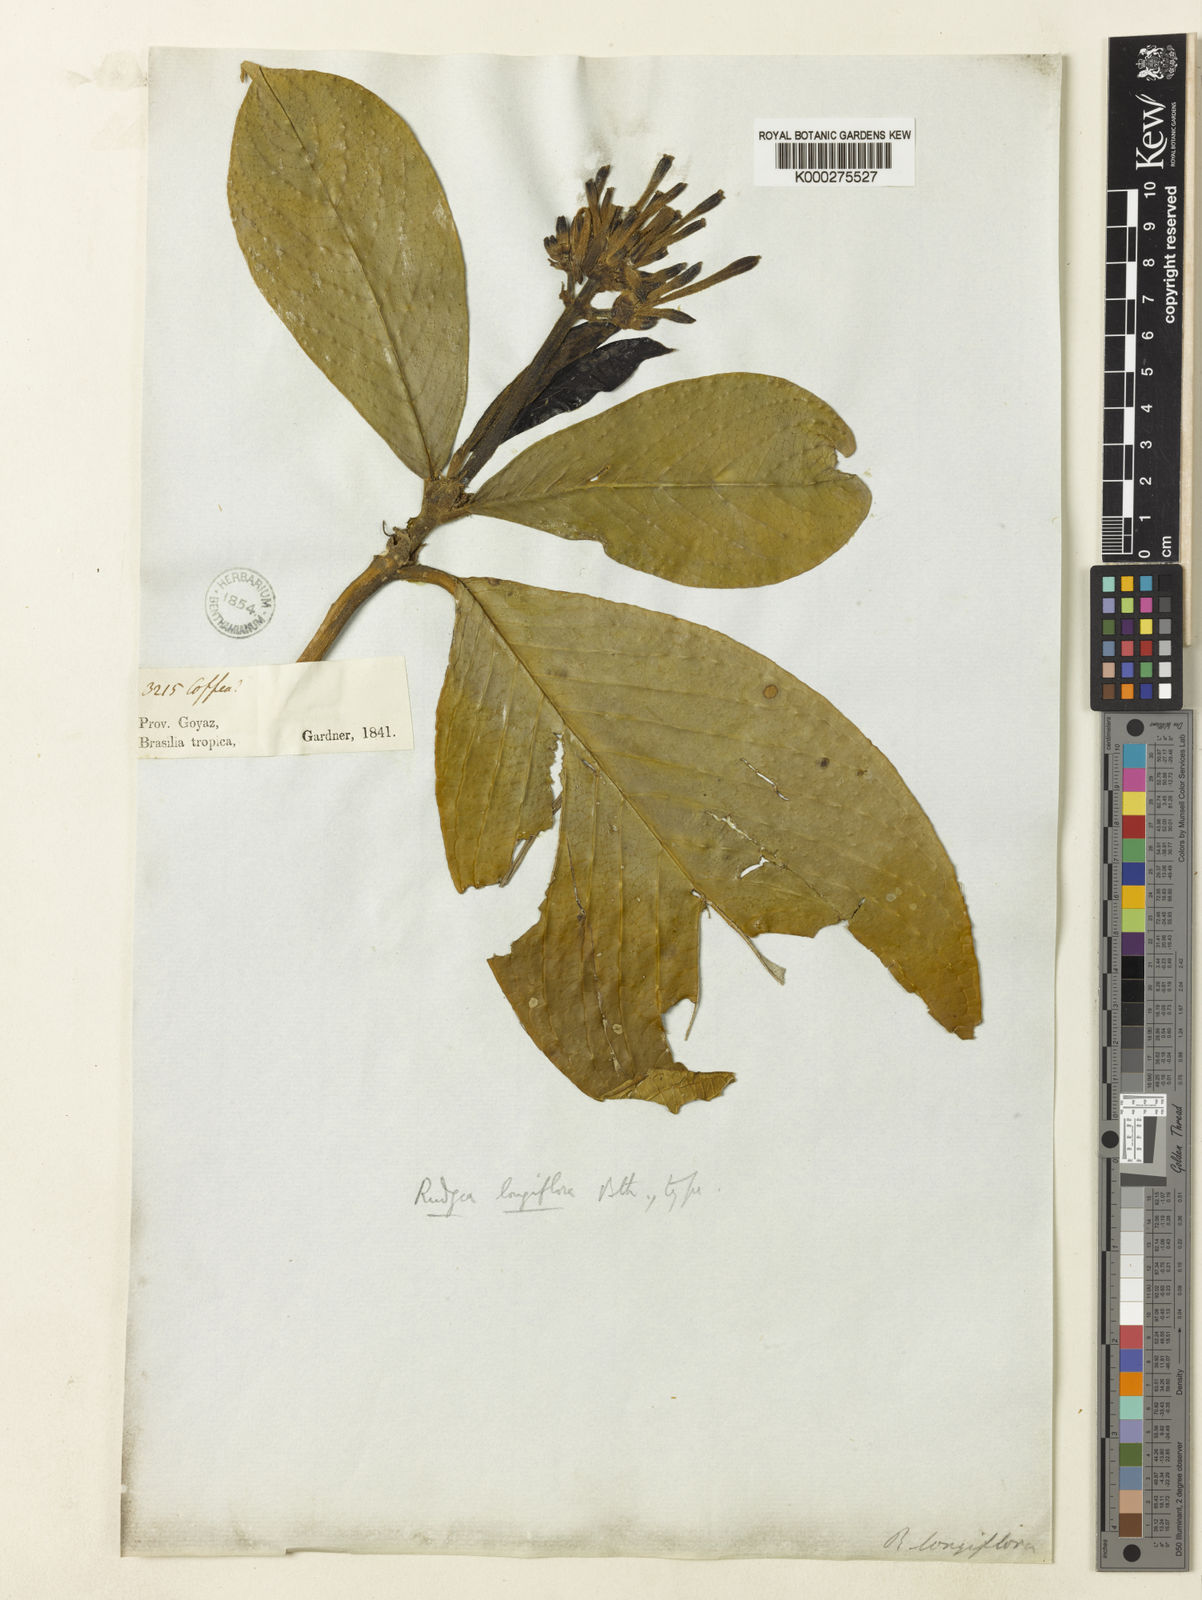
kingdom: Plantae
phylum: Tracheophyta
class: Magnoliopsida
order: Gentianales
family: Rubiaceae
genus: Rudgea
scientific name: Rudgea longiflora
